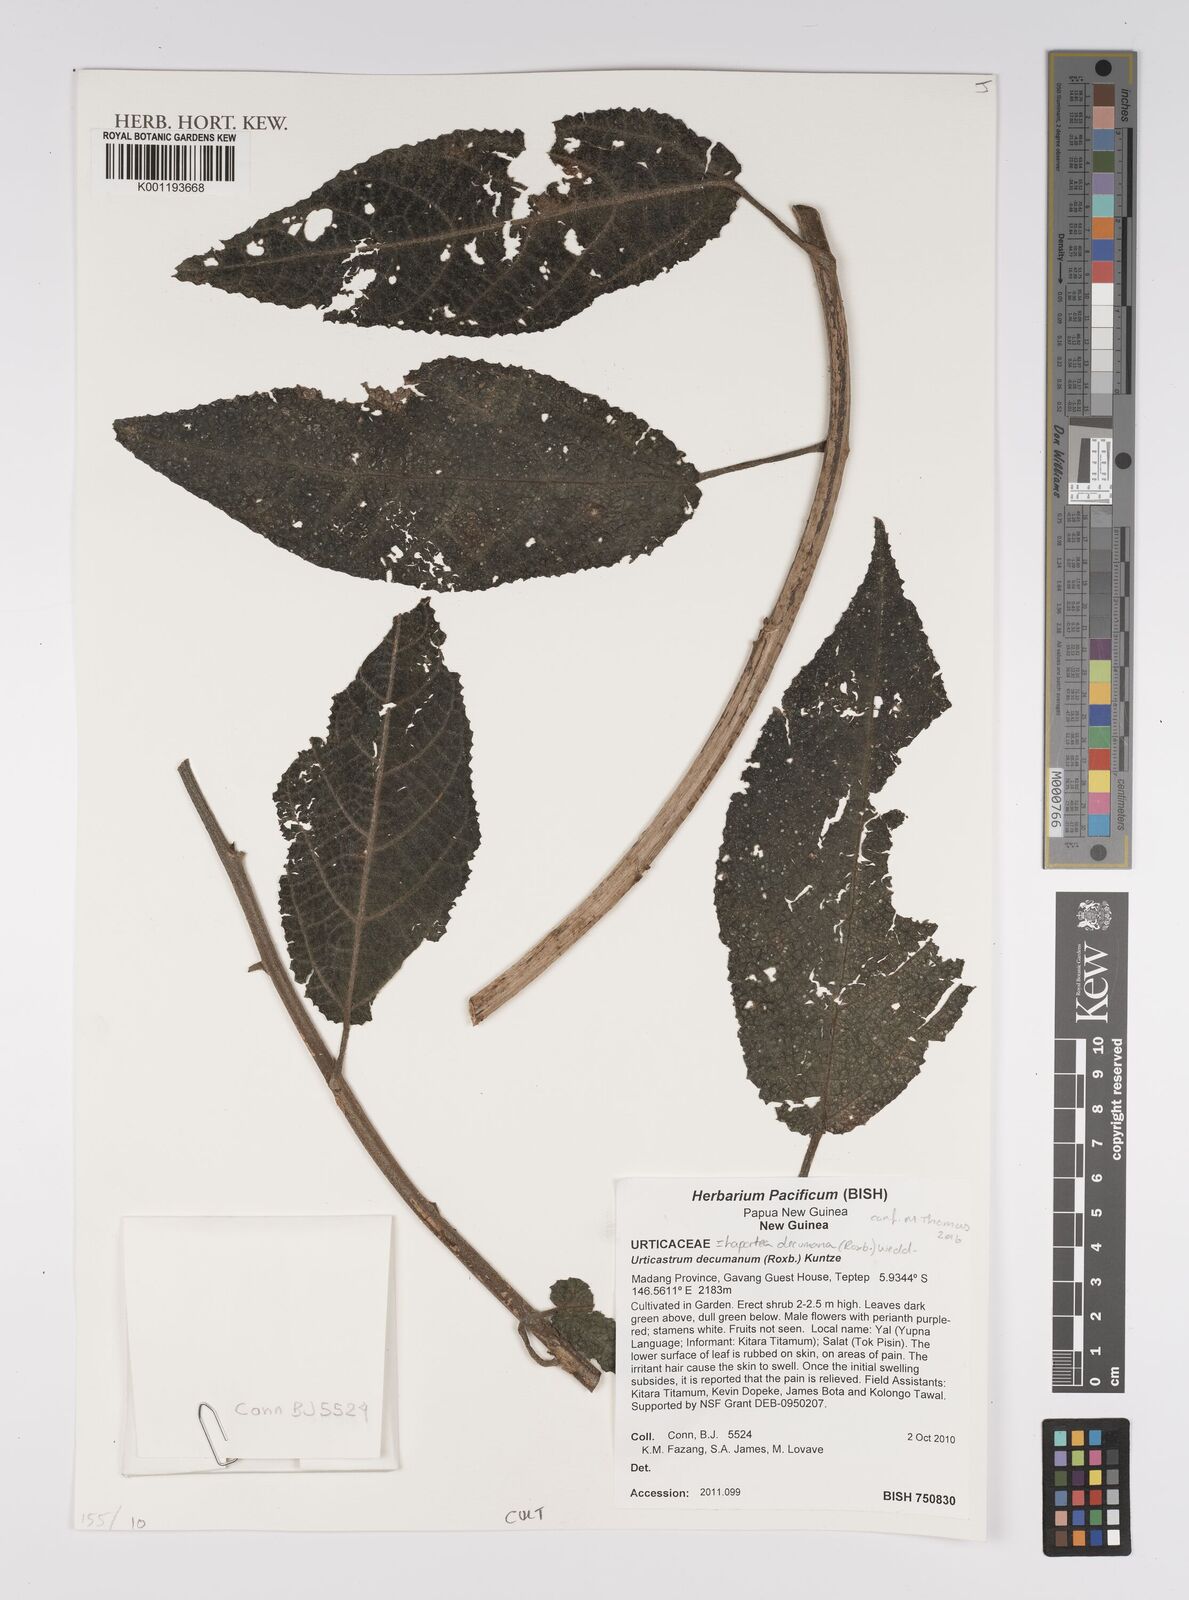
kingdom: Plantae
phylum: Tracheophyta
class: Magnoliopsida
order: Rosales
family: Urticaceae
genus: Laportea
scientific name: Laportea decumana
